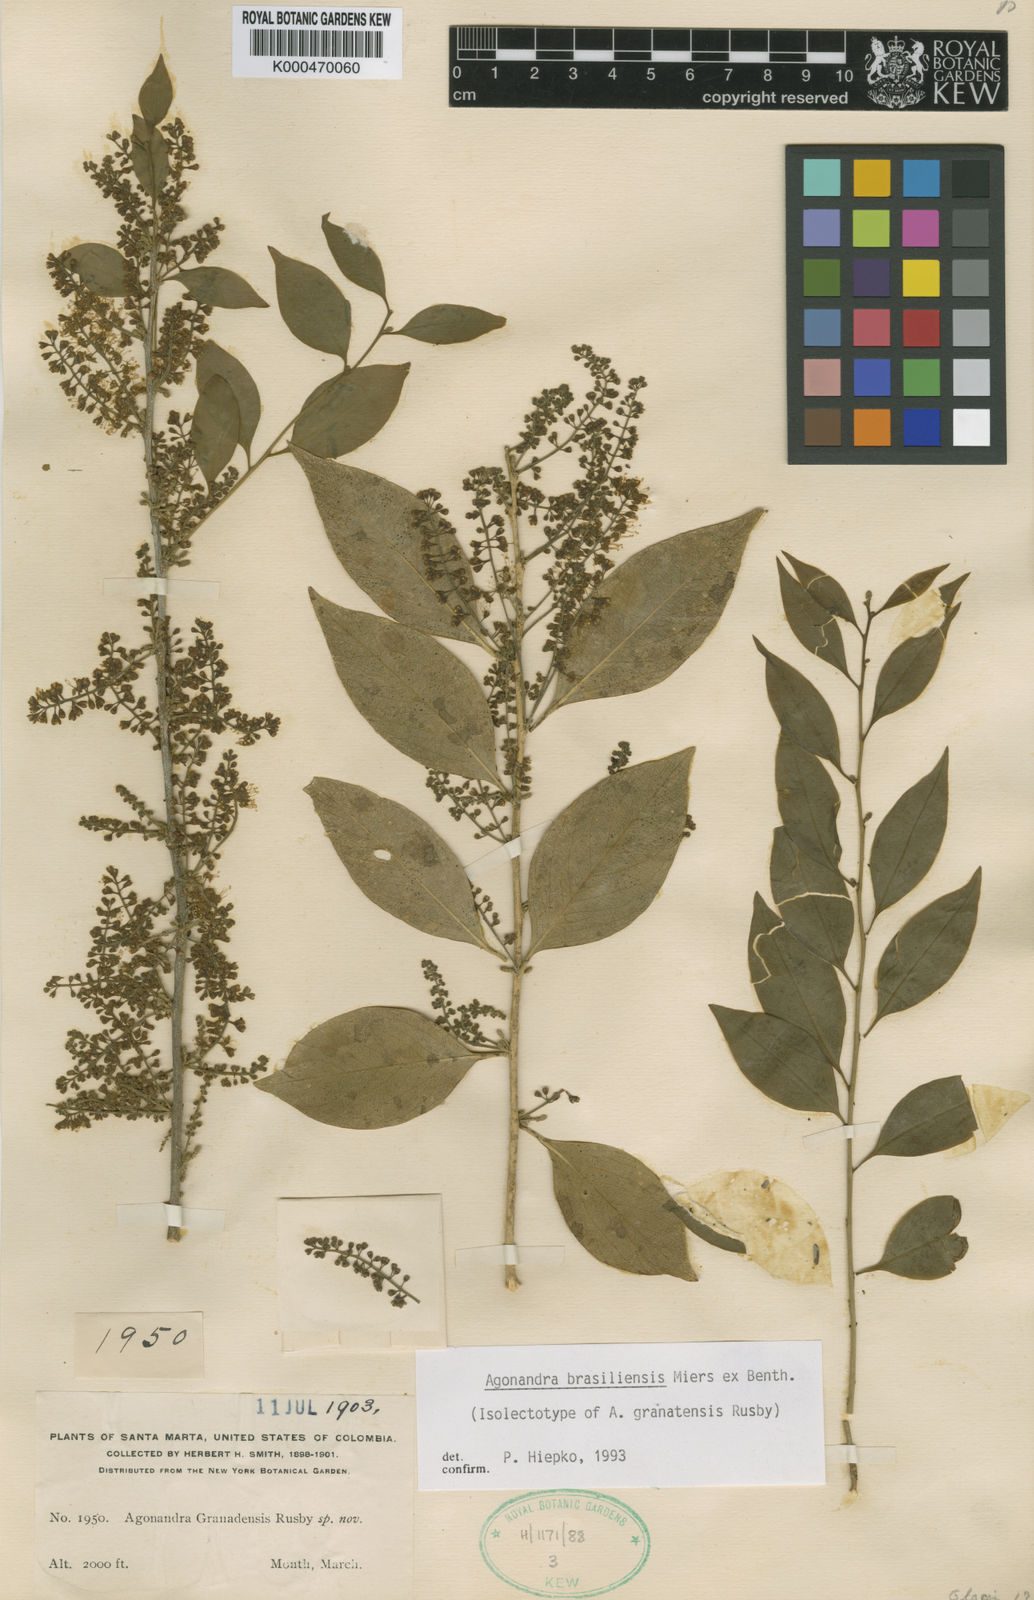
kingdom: Plantae
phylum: Tracheophyta
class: Magnoliopsida
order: Santalales
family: Opiliaceae
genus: Agonandra
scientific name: Agonandra brasiliensis
